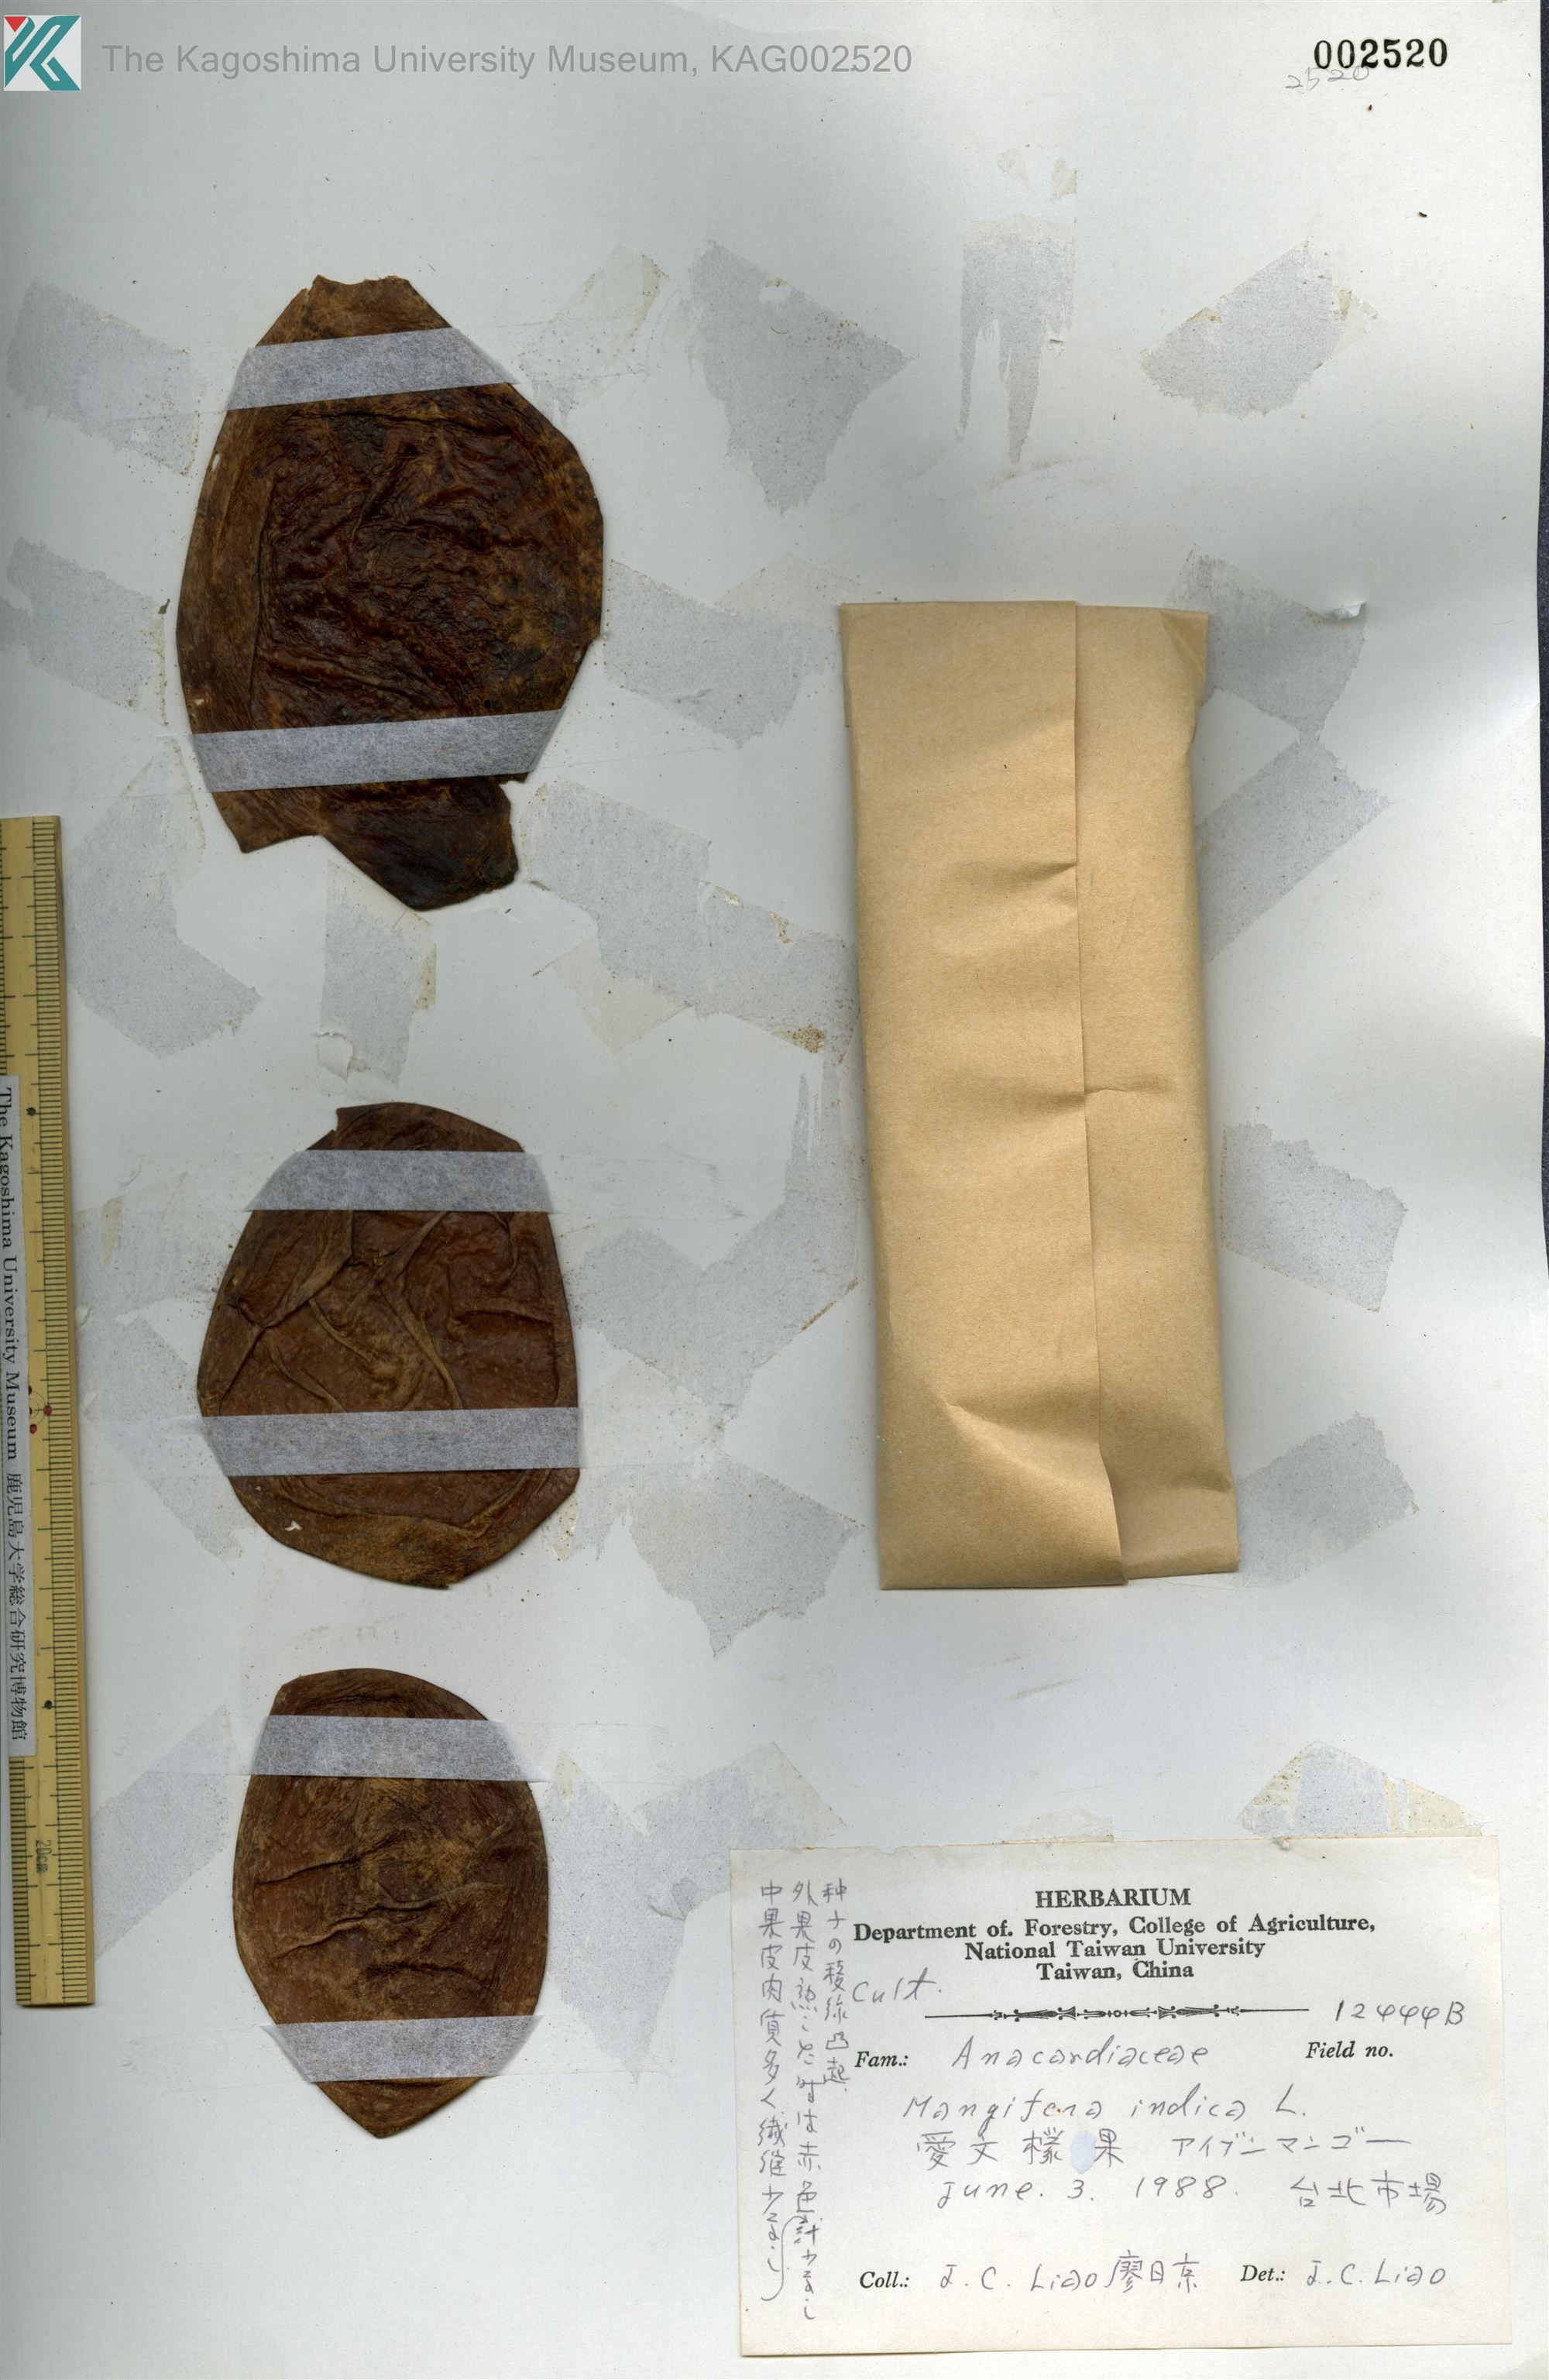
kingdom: Plantae
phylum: Tracheophyta
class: Magnoliopsida
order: Sapindales
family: Anacardiaceae
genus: Mangifera
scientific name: Mangifera indica
